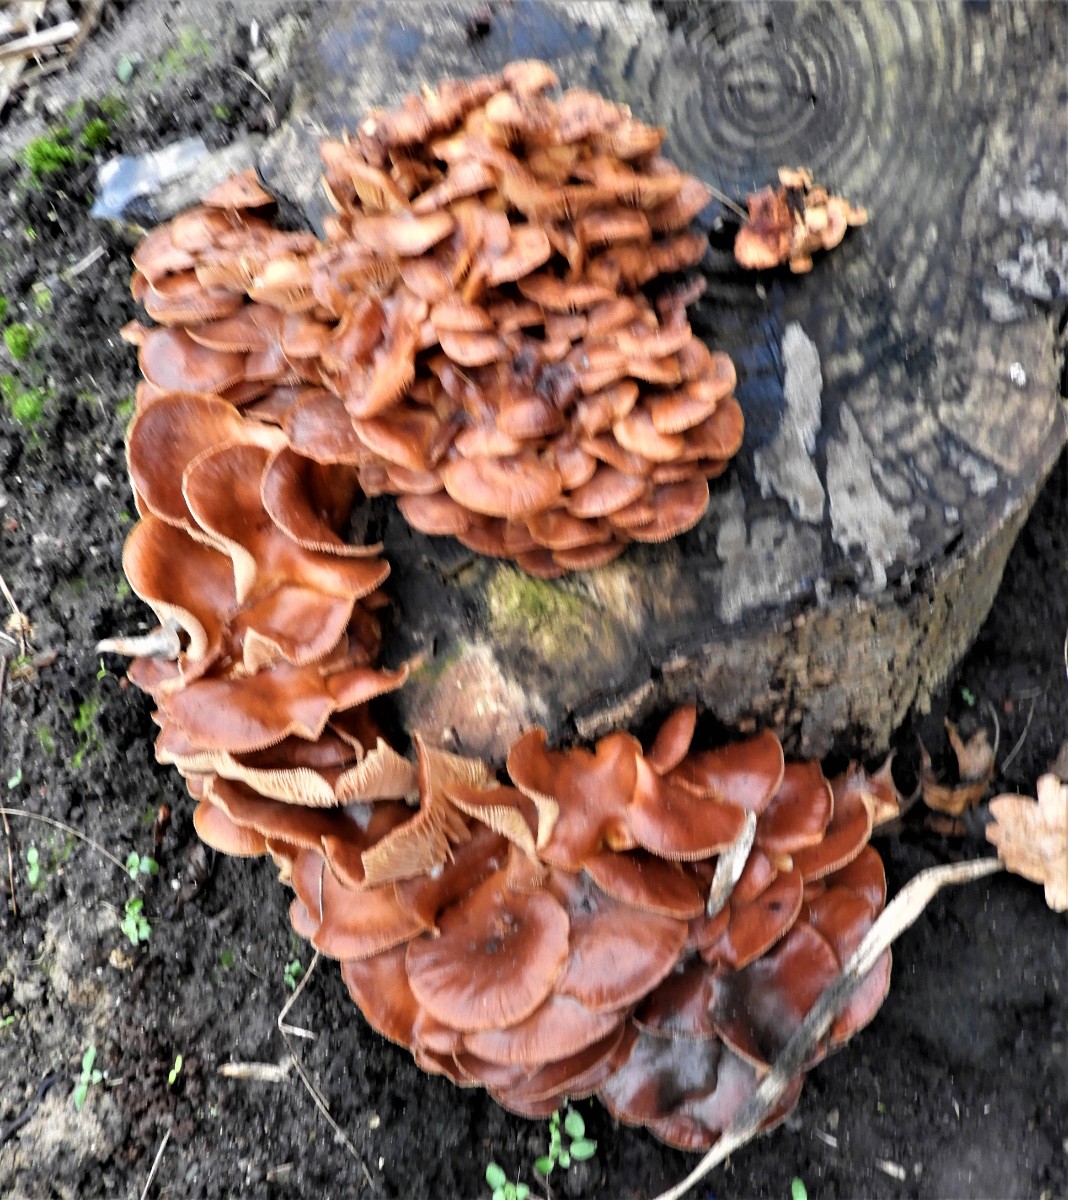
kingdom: Fungi
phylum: Basidiomycota
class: Agaricomycetes
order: Agaricales
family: Physalacriaceae
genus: Flammulina
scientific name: Flammulina velutipes
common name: gul fløjlsfod
